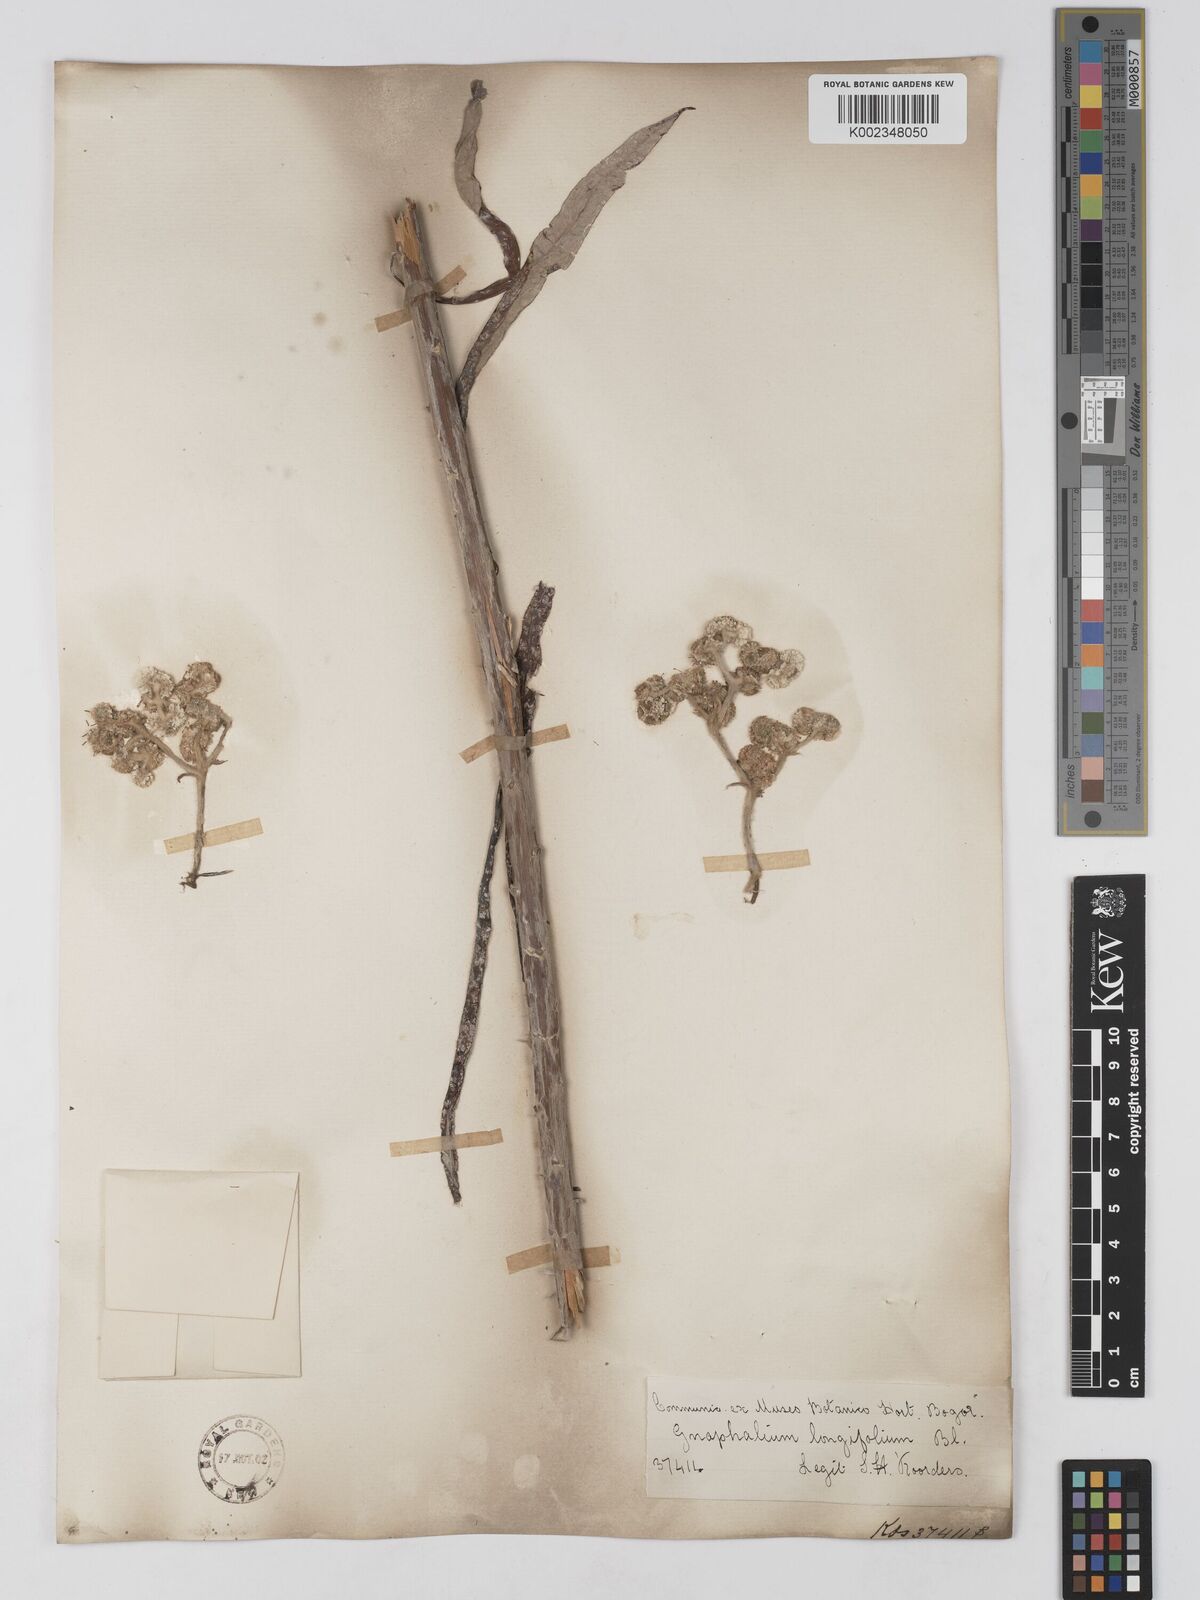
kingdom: Plantae
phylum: Tracheophyta
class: Magnoliopsida
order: Asterales
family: Asteraceae
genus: Anaphalis
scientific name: Anaphalis longifolia
